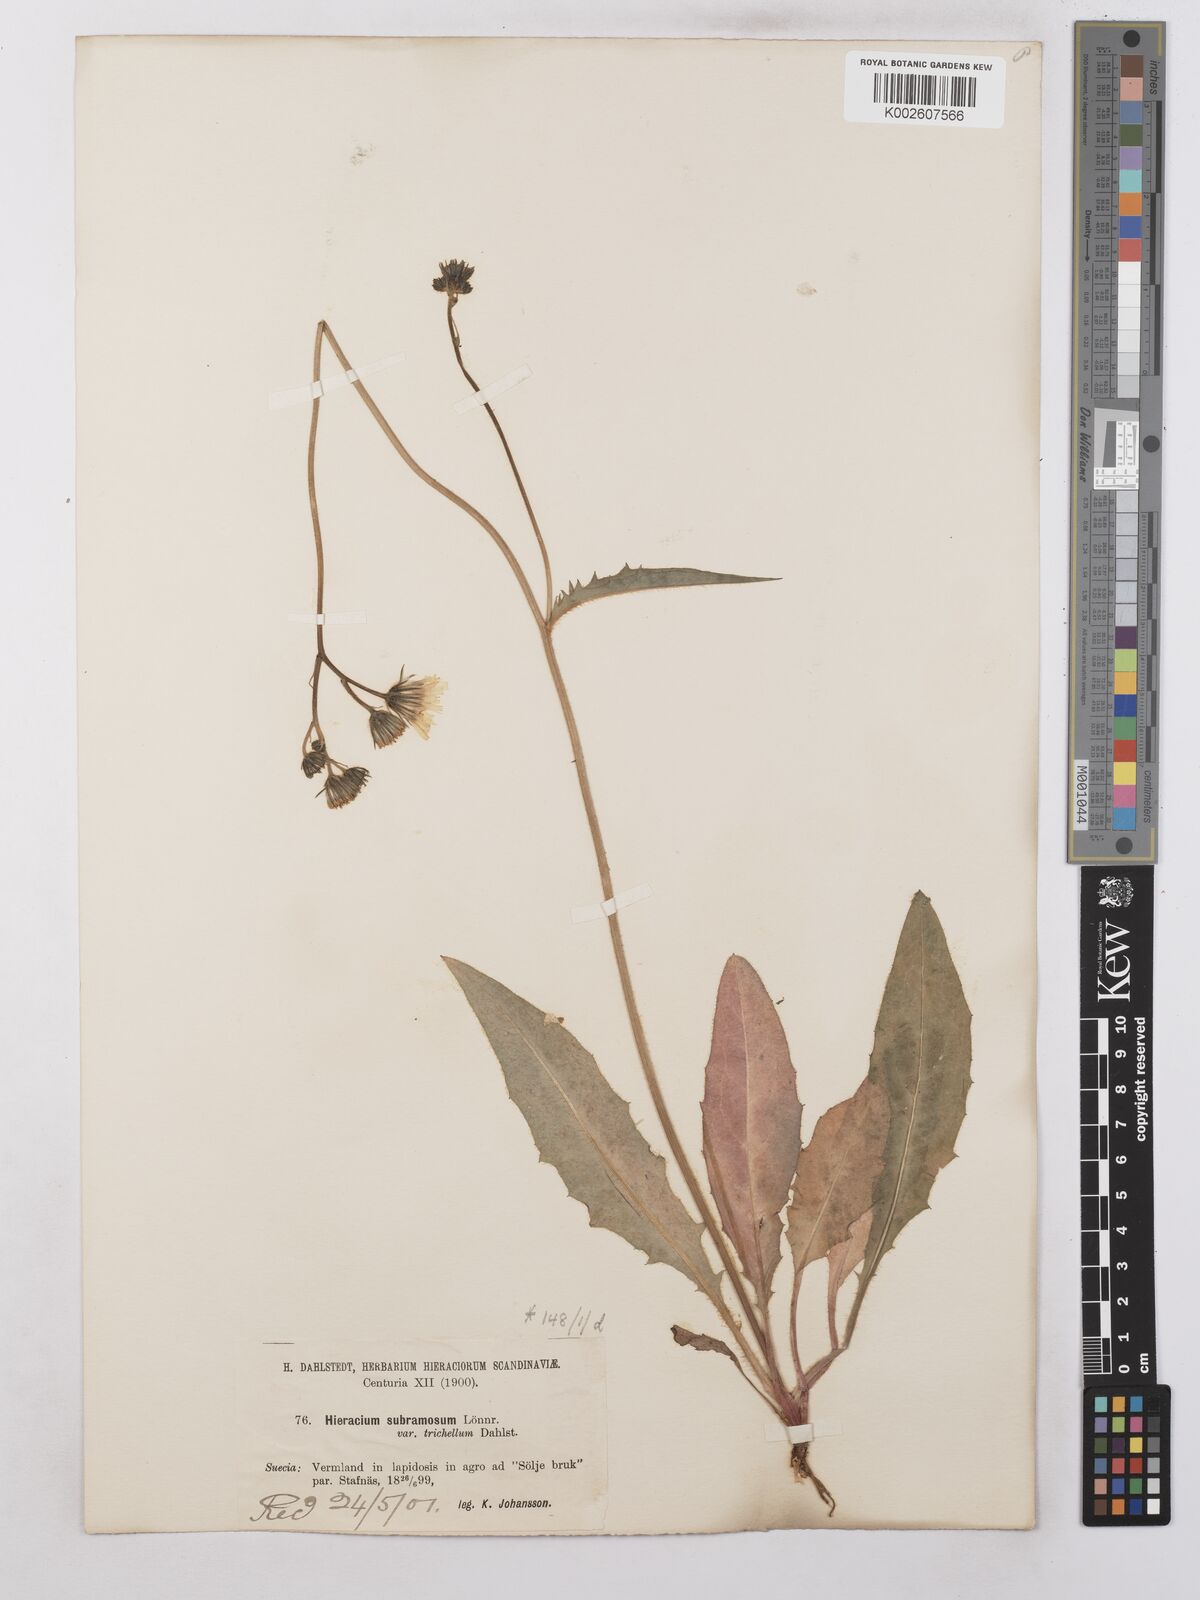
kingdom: Plantae
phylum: Tracheophyta
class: Magnoliopsida
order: Asterales
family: Asteraceae
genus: Hieracium
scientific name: Hieracium subramosum
